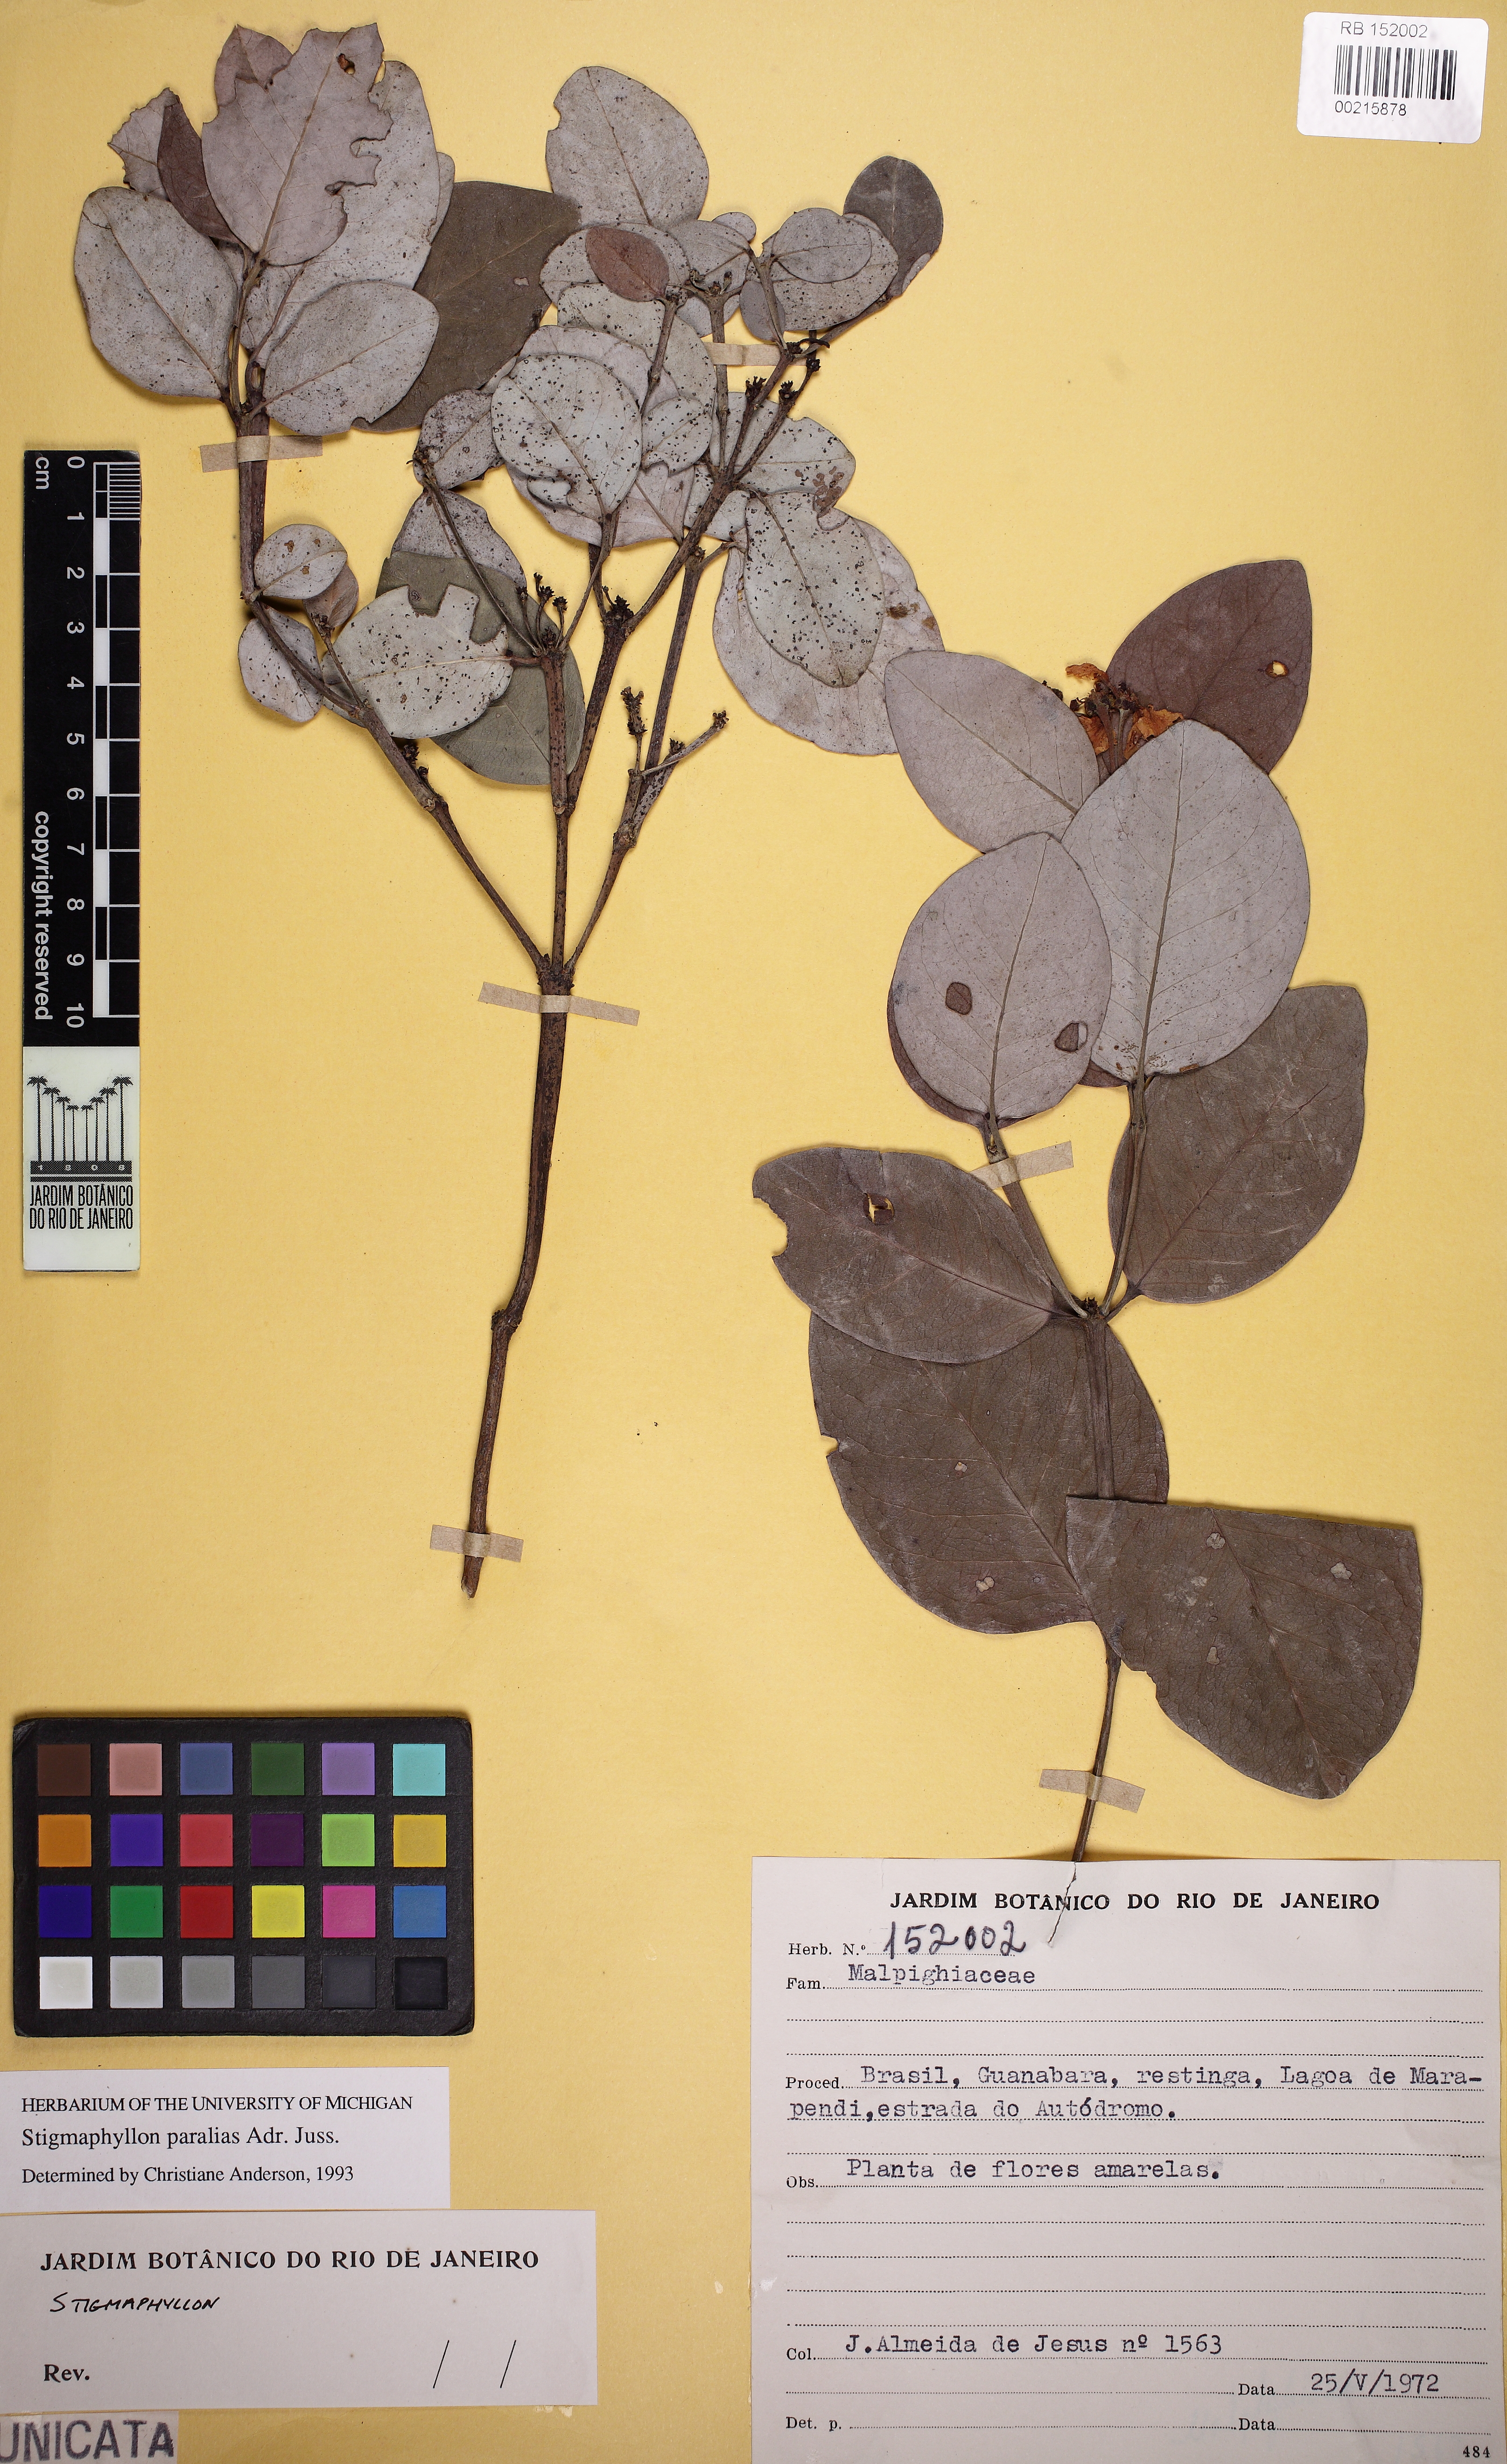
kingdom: Plantae
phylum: Tracheophyta
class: Magnoliopsida
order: Malpighiales
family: Malpighiaceae
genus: Stigmaphyllon
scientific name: Stigmaphyllon paralias
